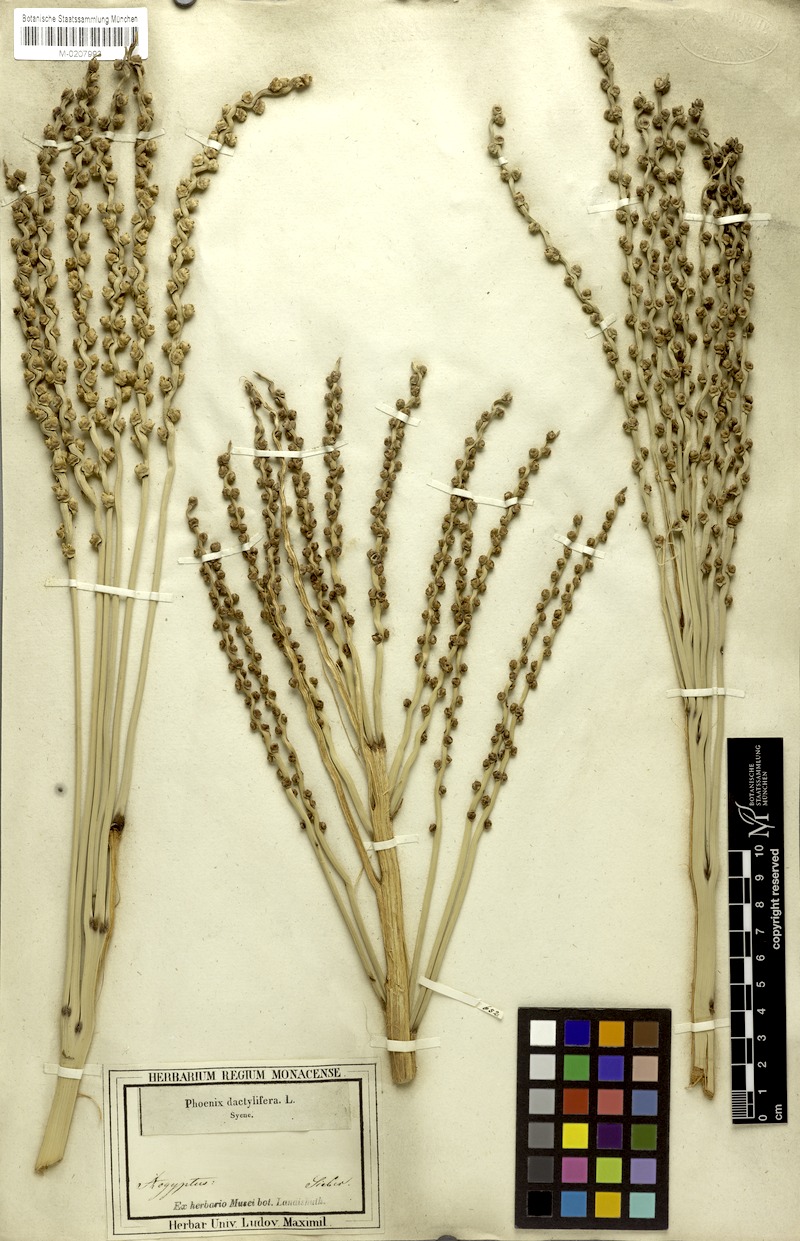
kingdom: Plantae
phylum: Tracheophyta
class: Liliopsida
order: Arecales
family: Arecaceae
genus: Phoenix
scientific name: Phoenix dactylifera
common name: Date palm
